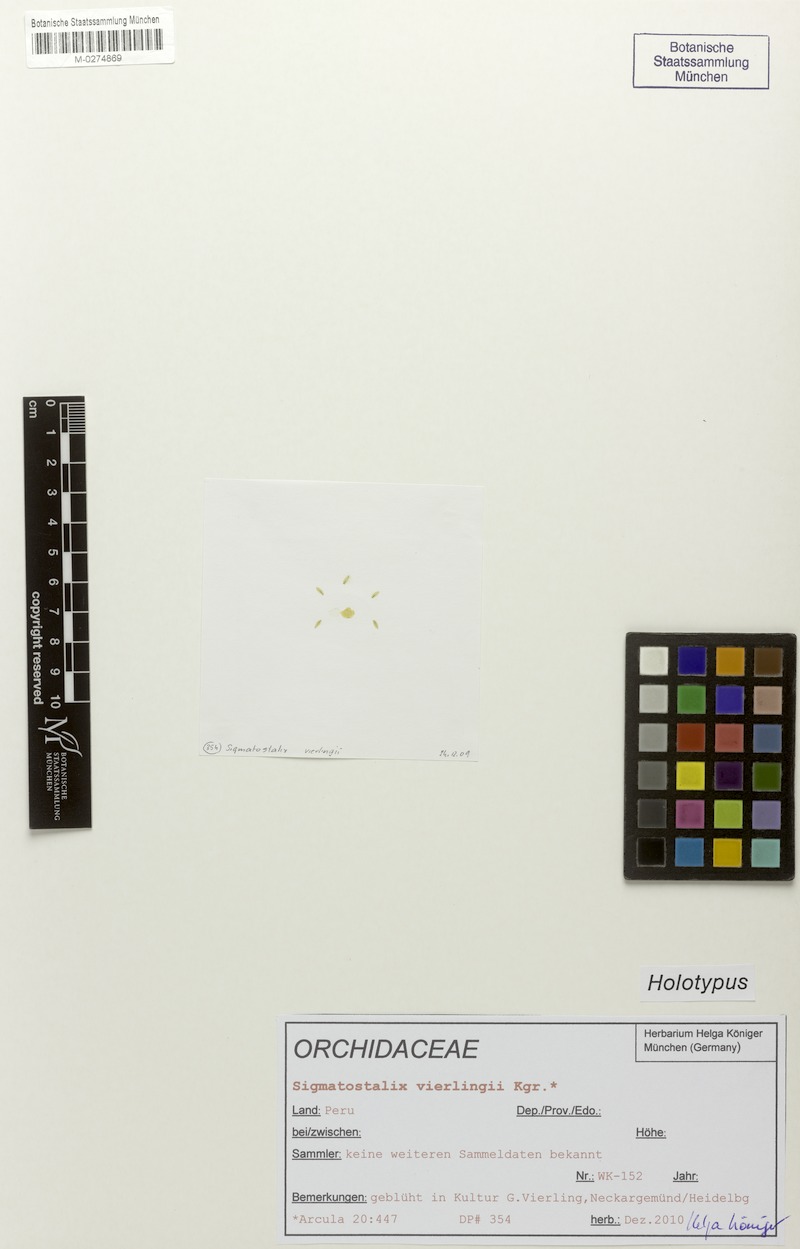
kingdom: Plantae
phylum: Tracheophyta
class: Liliopsida
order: Asparagales
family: Orchidaceae
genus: Oncidium
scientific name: Oncidium neovierlingii
